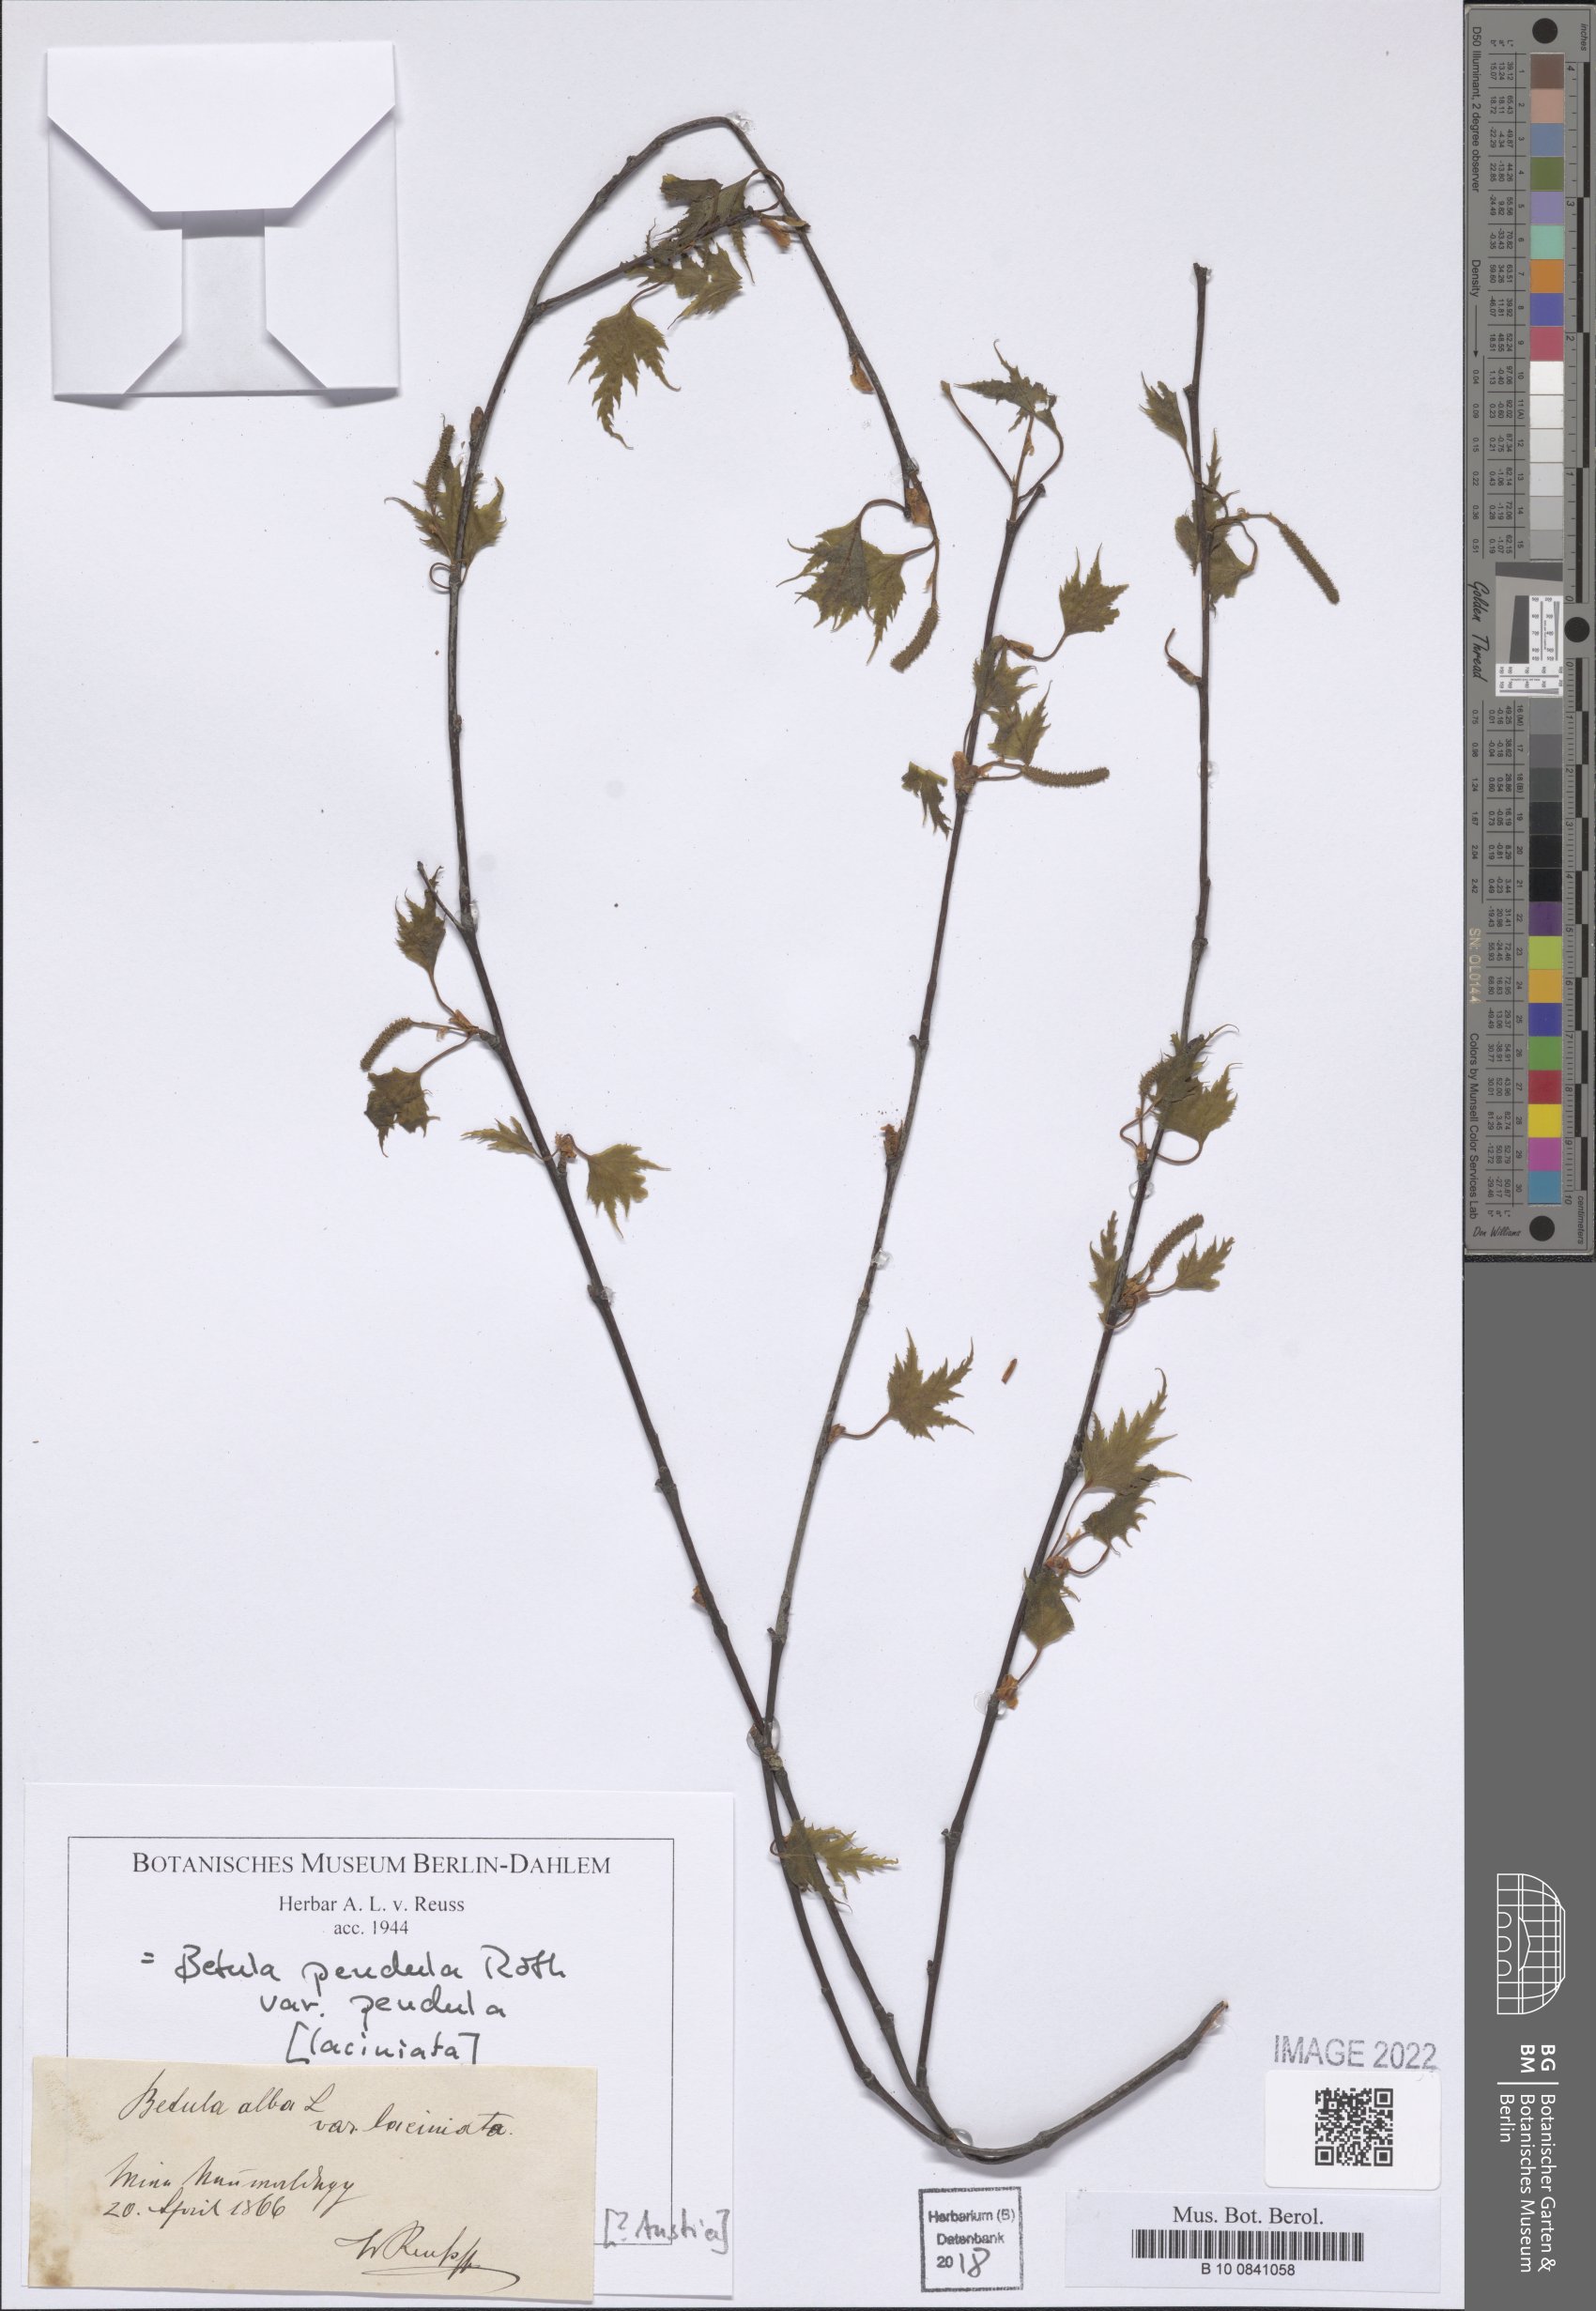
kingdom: Plantae
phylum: Tracheophyta
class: Magnoliopsida
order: Fagales
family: Betulaceae
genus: Betula
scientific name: Betula pendula
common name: Silver birch
